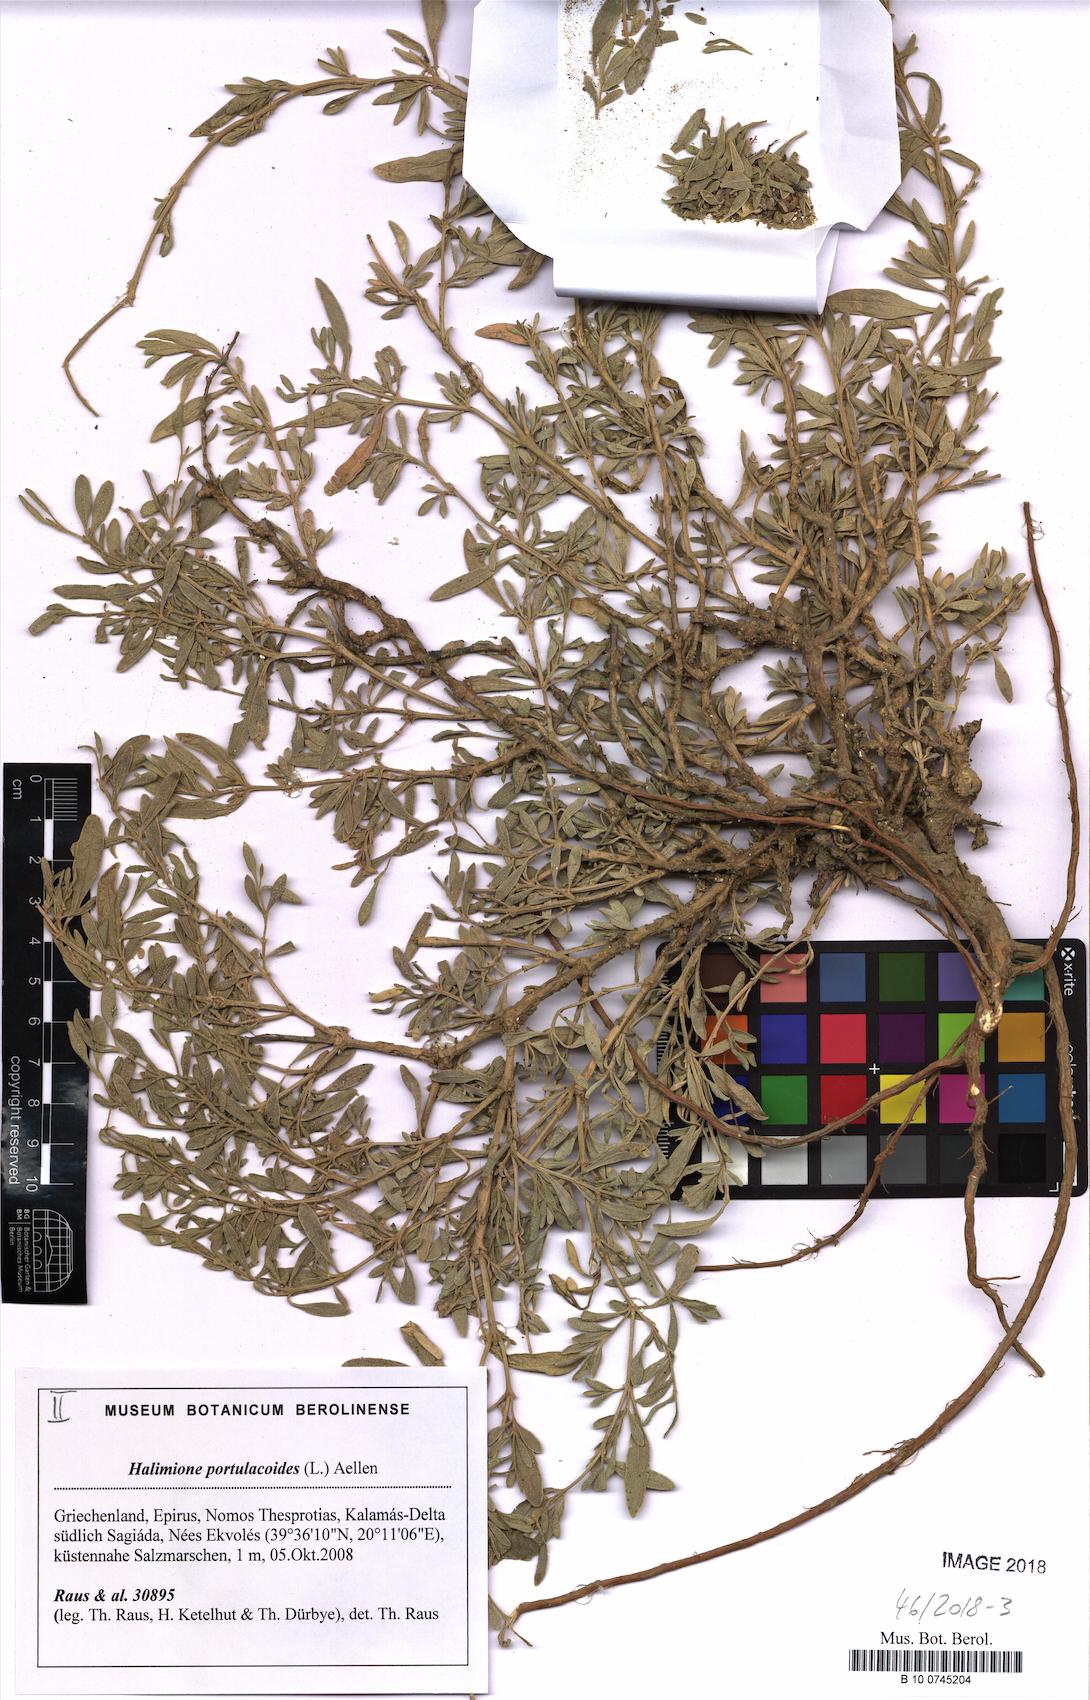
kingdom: Plantae
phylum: Tracheophyta
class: Magnoliopsida
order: Caryophyllales
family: Amaranthaceae
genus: Halimione
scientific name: Halimione portulacoides
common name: Sea-purslane
